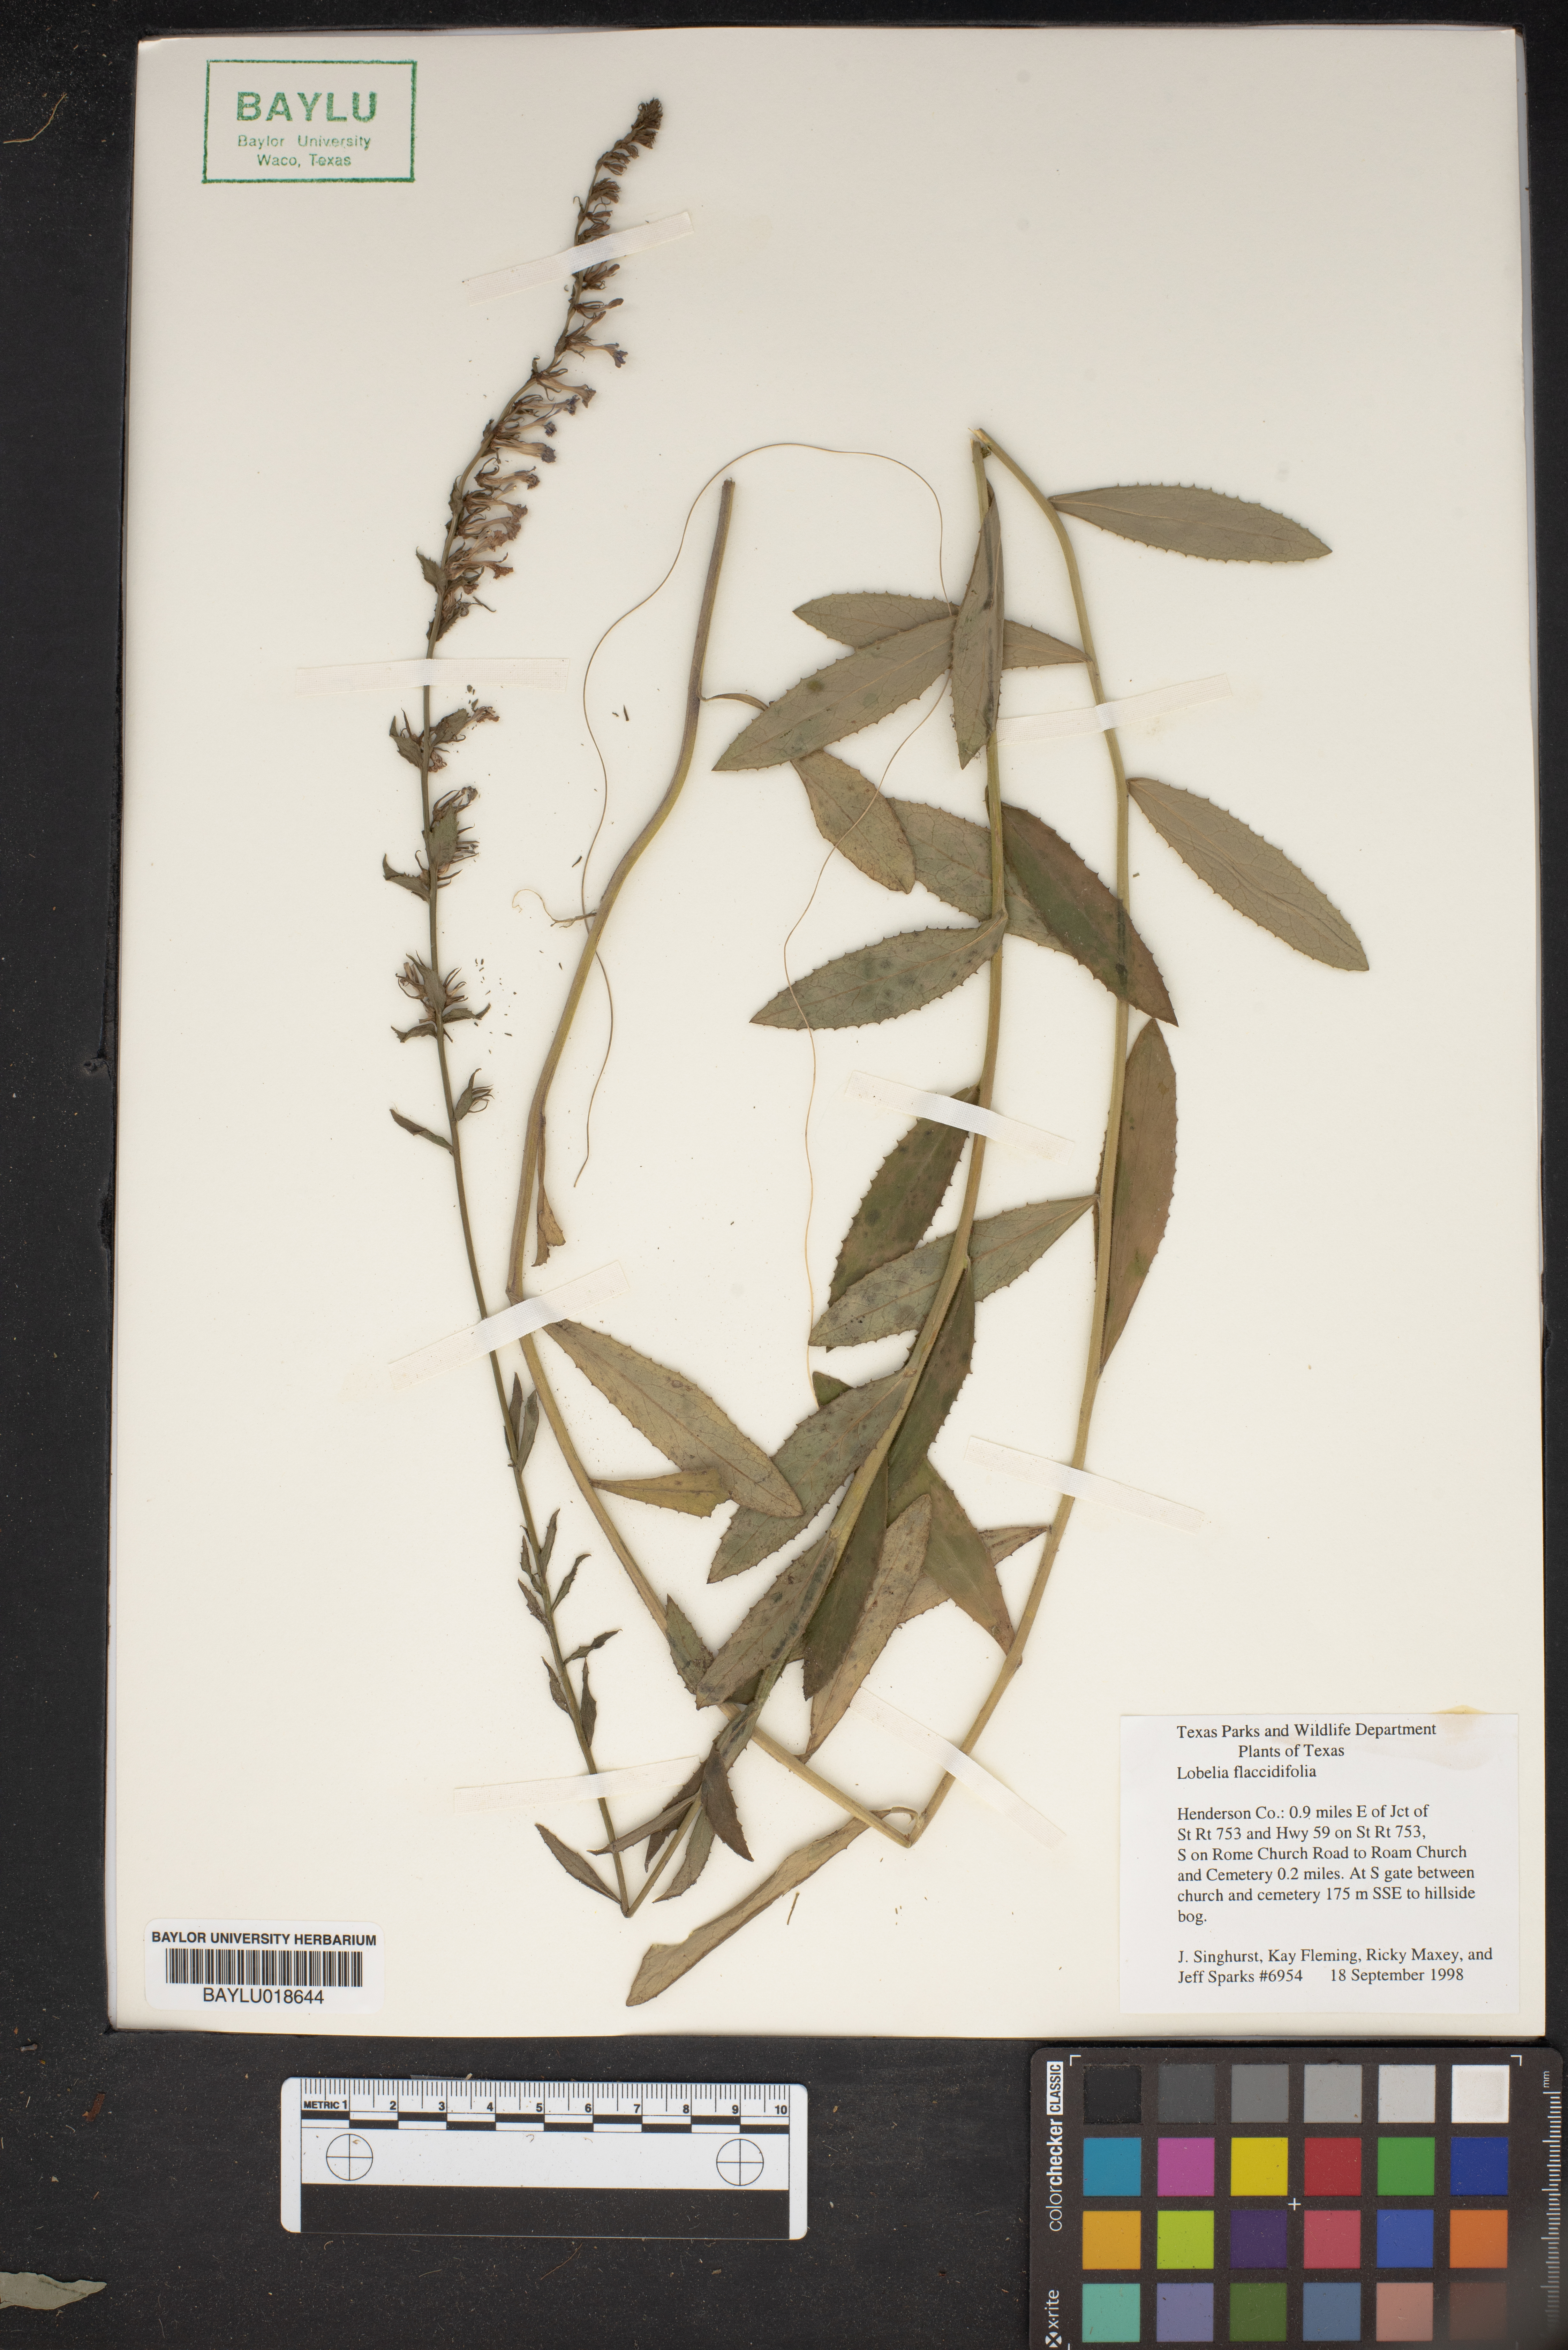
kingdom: Plantae
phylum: Tracheophyta
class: Magnoliopsida
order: Asterales
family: Campanulaceae
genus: Lobelia
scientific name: Lobelia flaccidifolia
